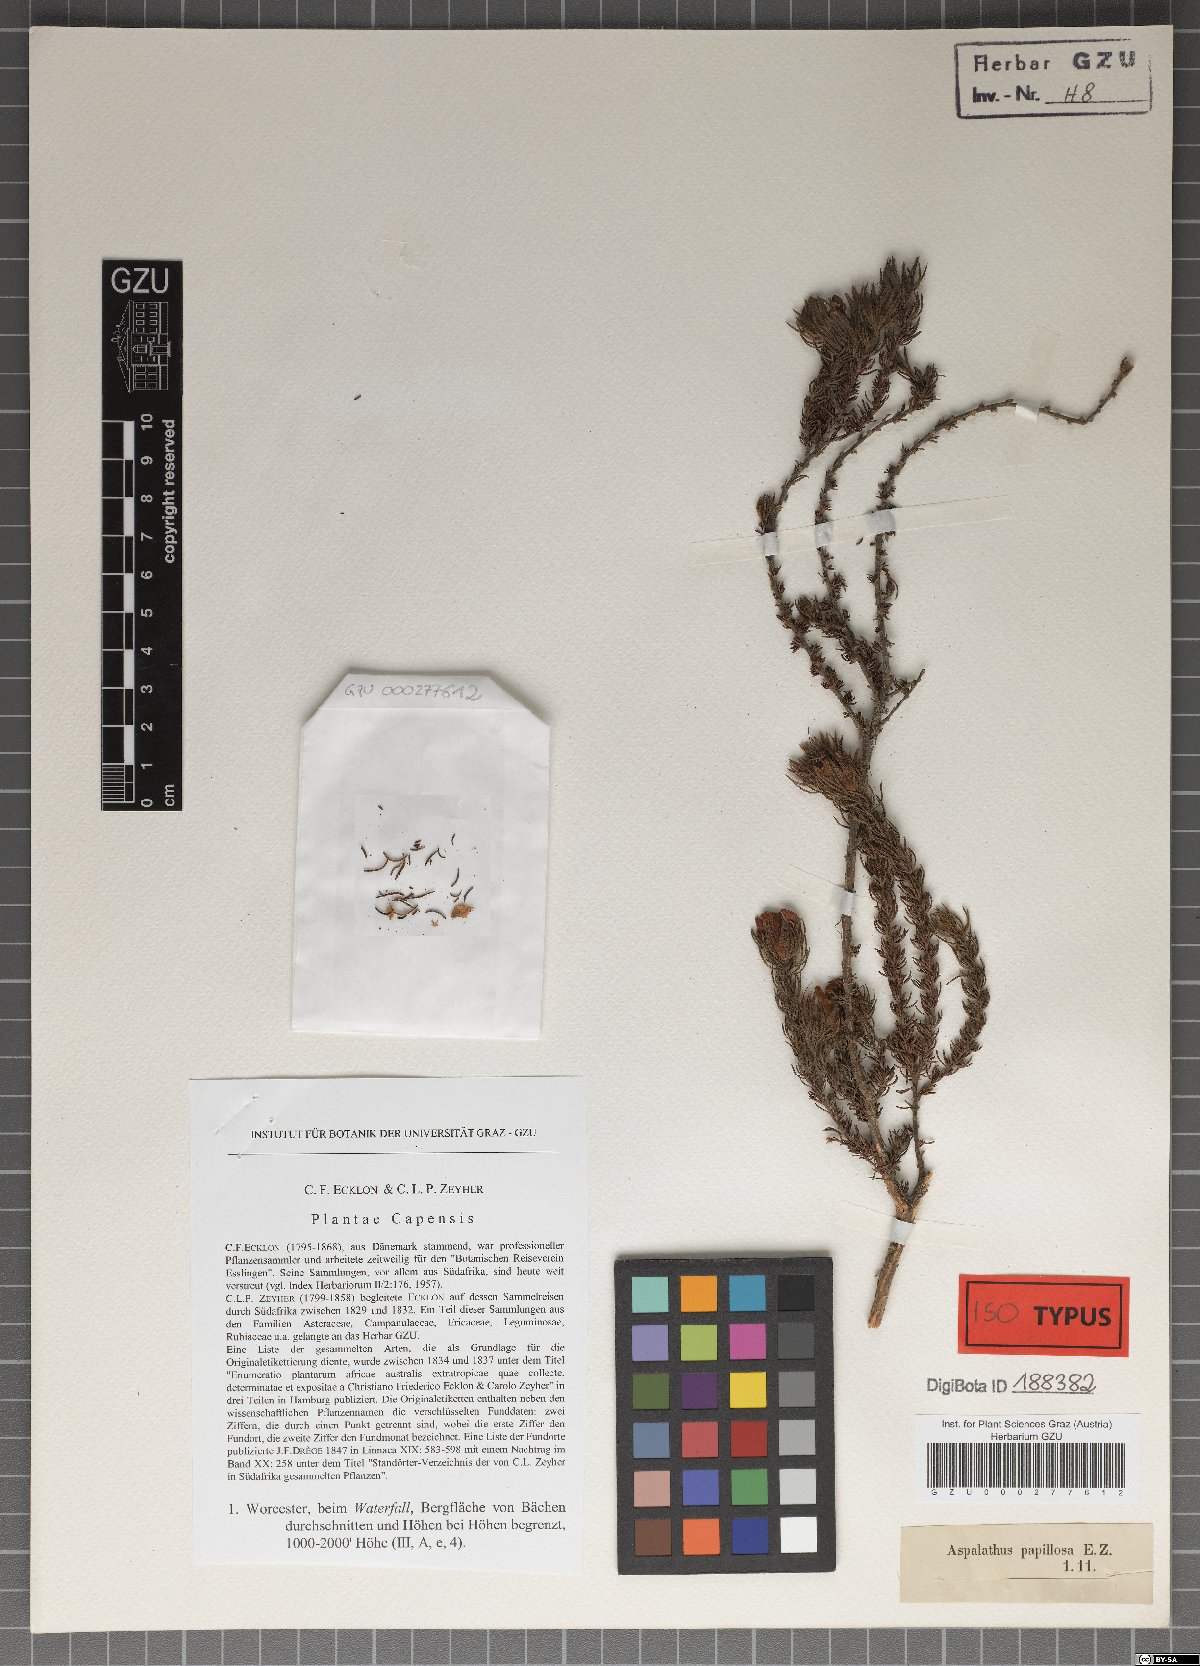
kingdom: Plantae
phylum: Tracheophyta
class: Magnoliopsida
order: Fabales
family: Fabaceae
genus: Aspalathus
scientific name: Aspalathus ciliaris
